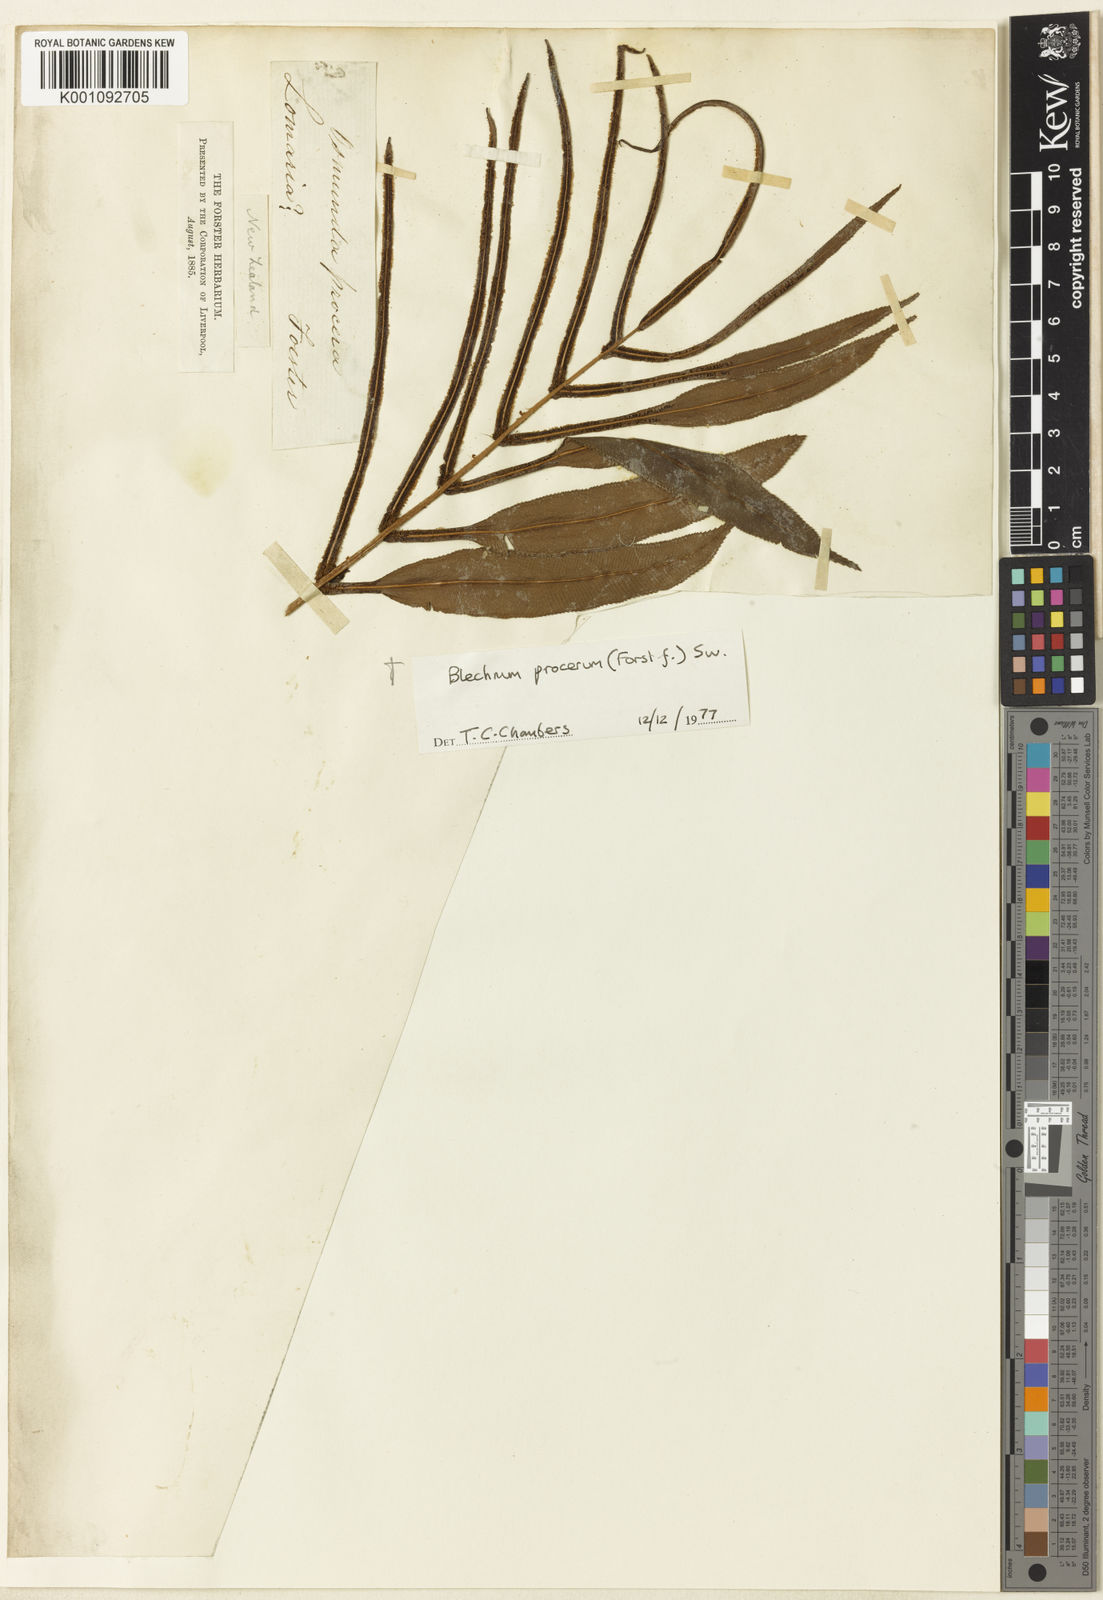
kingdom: Plantae
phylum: Tracheophyta
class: Polypodiopsida
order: Polypodiales
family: Blechnaceae
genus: Parablechnum
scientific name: Parablechnum procerum
